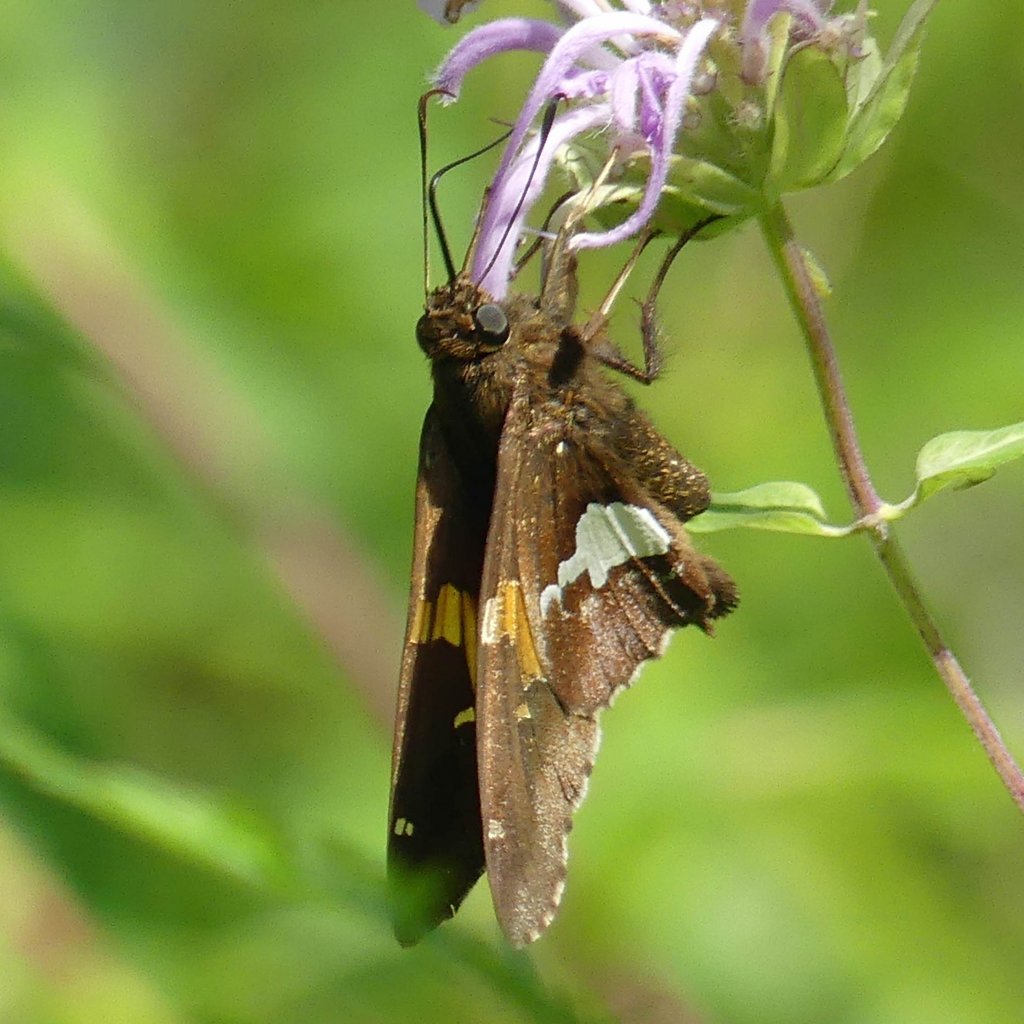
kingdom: Animalia
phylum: Arthropoda
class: Insecta
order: Lepidoptera
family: Hesperiidae
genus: Epargyreus
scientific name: Epargyreus clarus
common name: Silver-spotted Skipper
